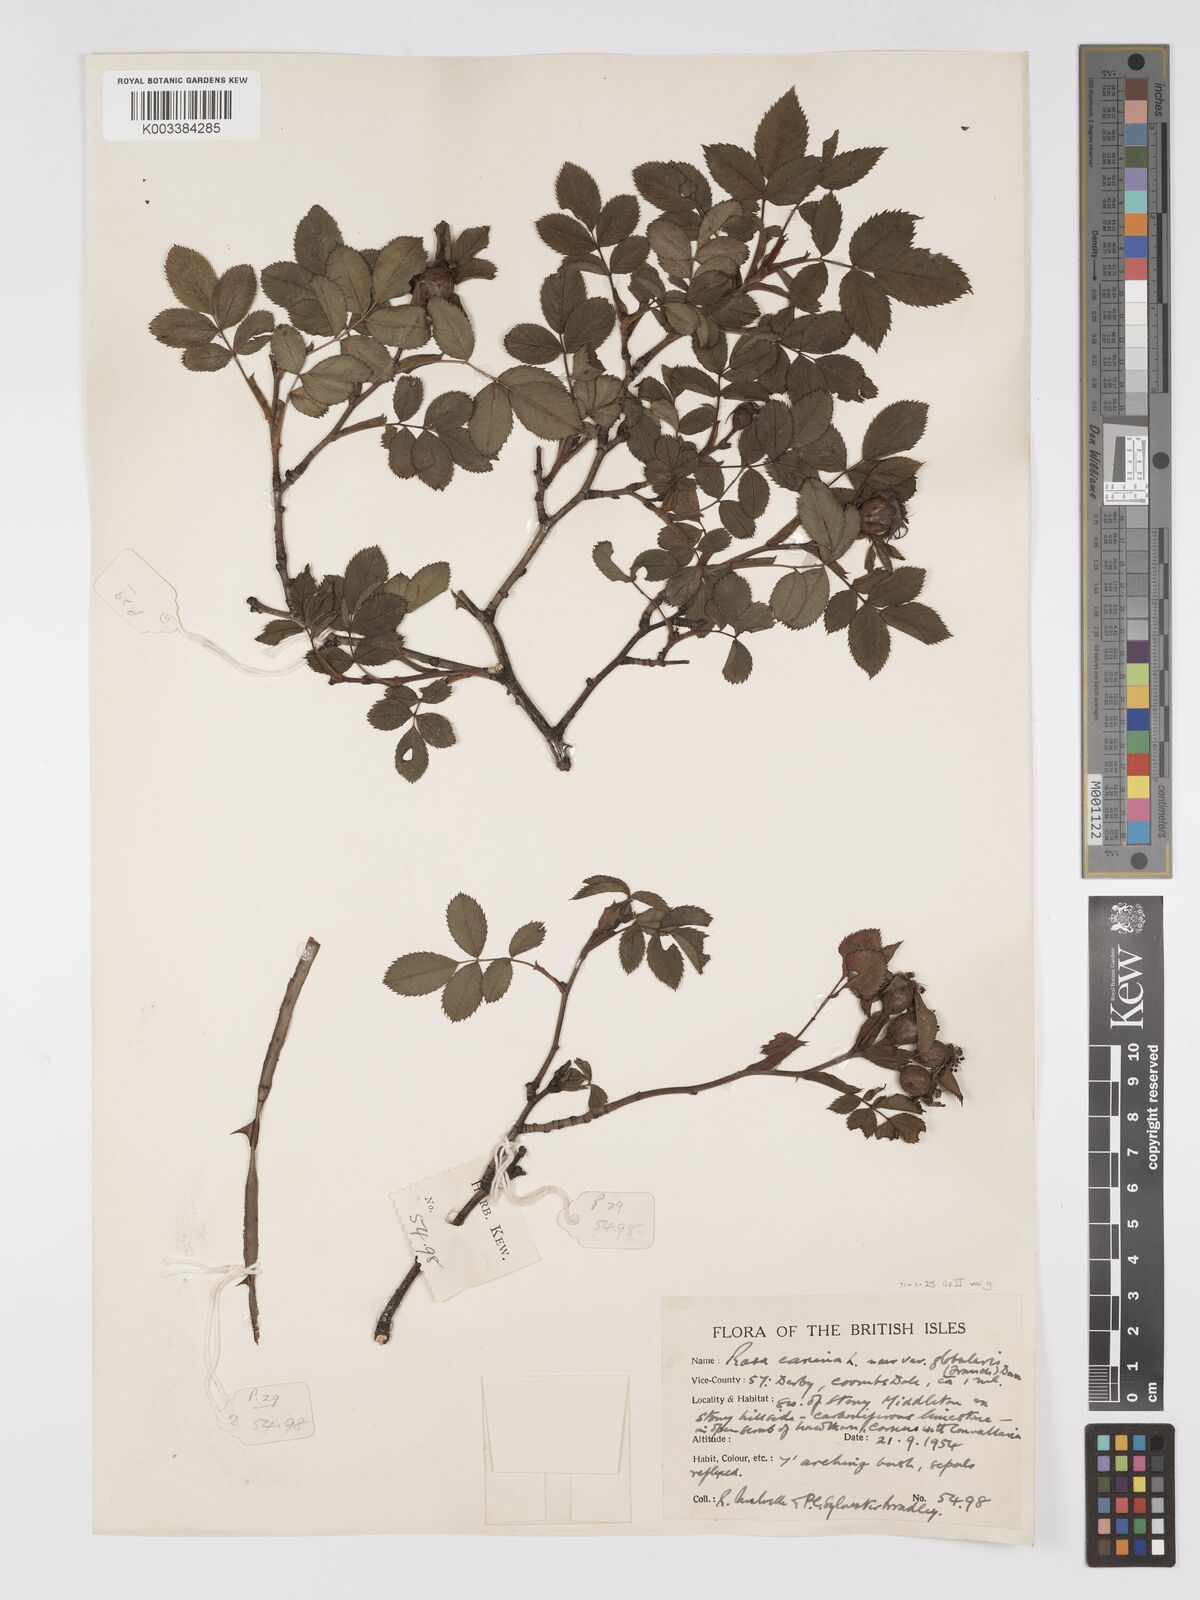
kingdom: Plantae
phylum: Tracheophyta
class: Magnoliopsida
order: Rosales
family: Rosaceae
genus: Rosa
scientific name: Rosa canina
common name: Dog rose
